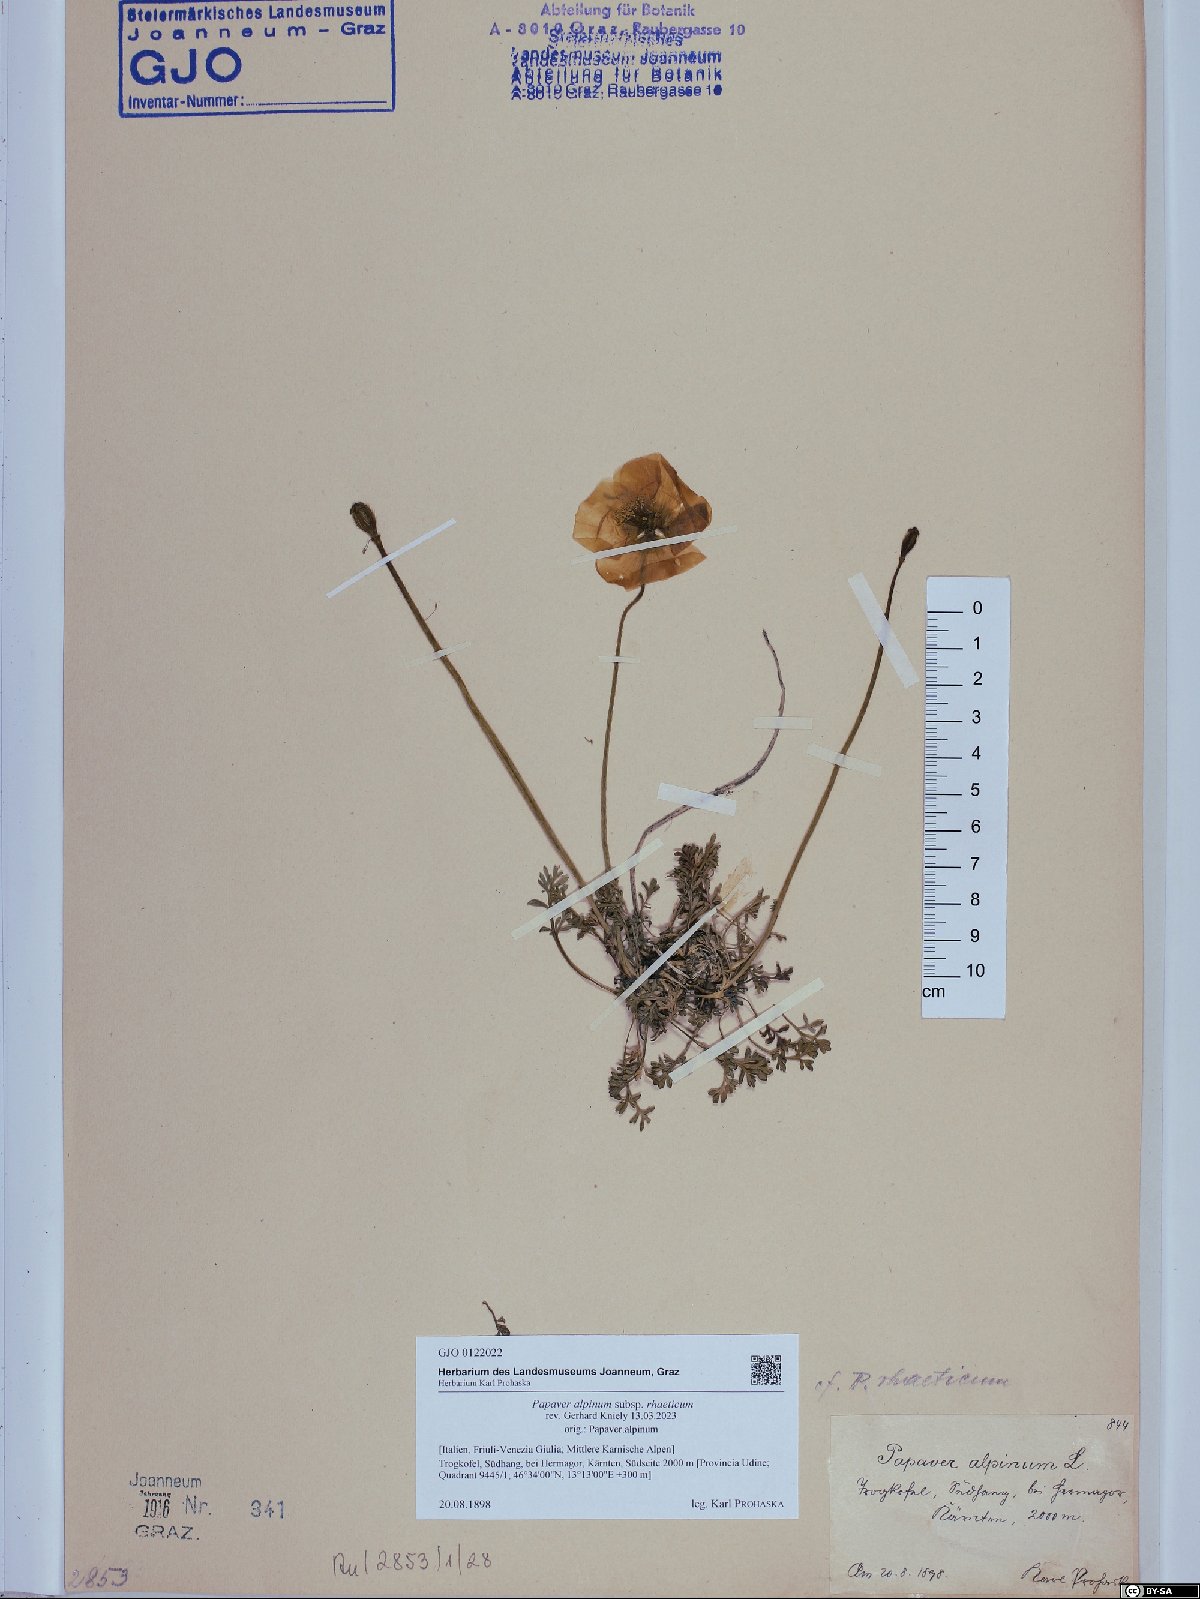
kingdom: Plantae
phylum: Tracheophyta
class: Magnoliopsida
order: Ranunculales
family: Papaveraceae
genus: Papaver
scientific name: Papaver alpinum
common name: Austrian poppy
